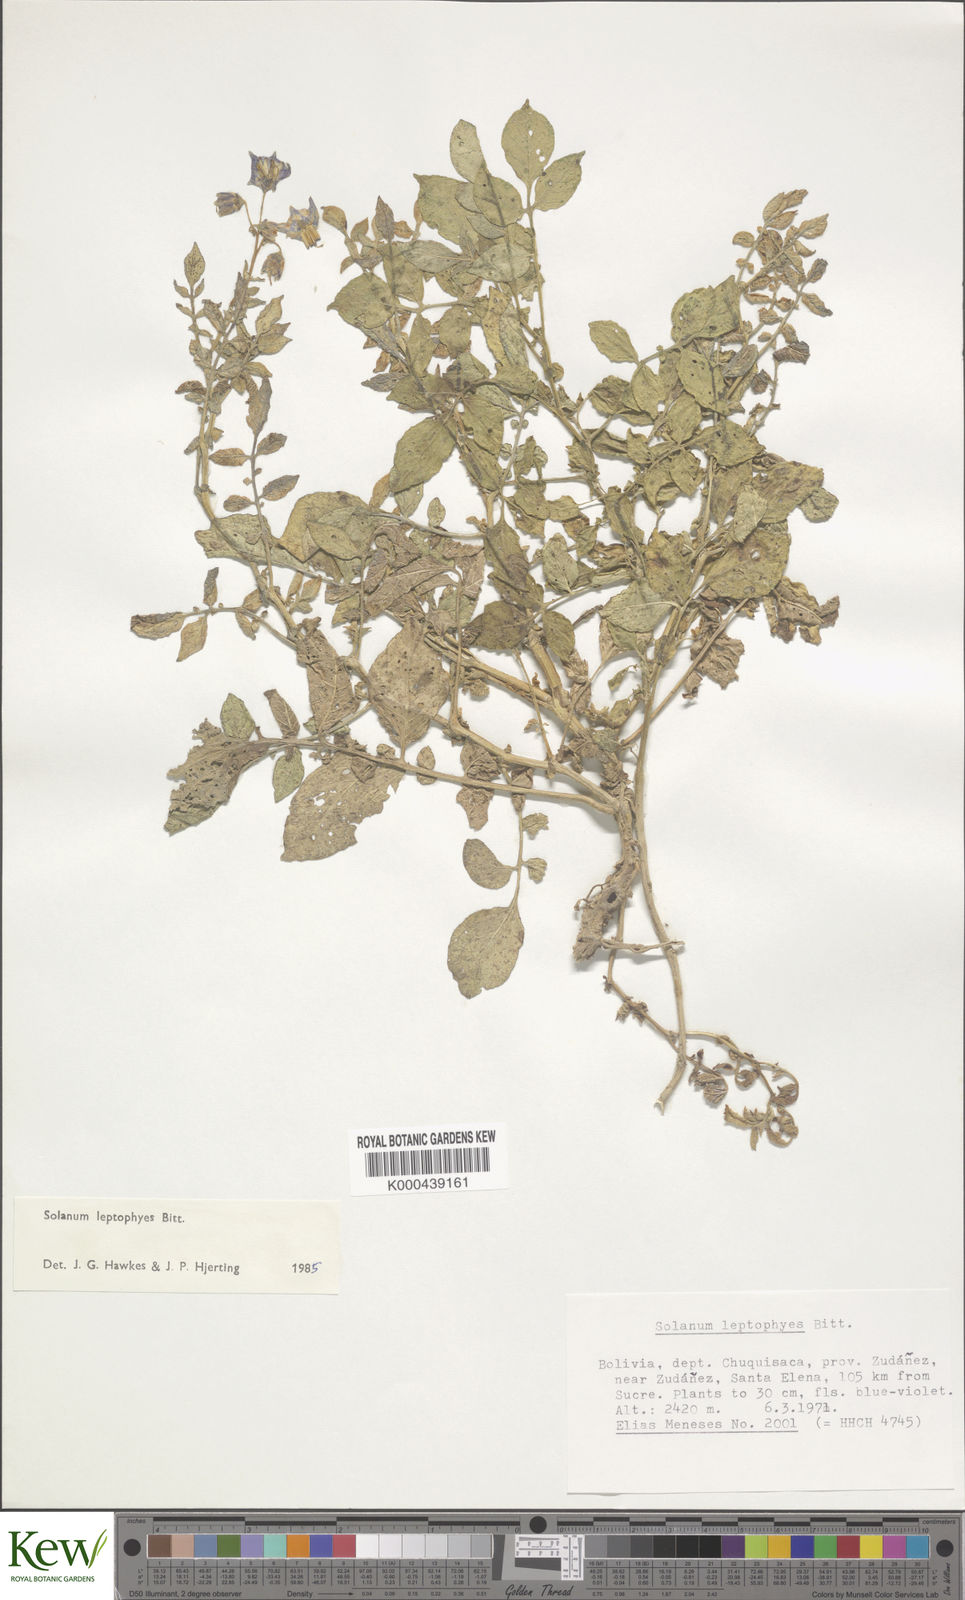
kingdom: Plantae
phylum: Tracheophyta
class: Magnoliopsida
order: Solanales
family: Solanaceae
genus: Solanum
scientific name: Solanum brevicaule
